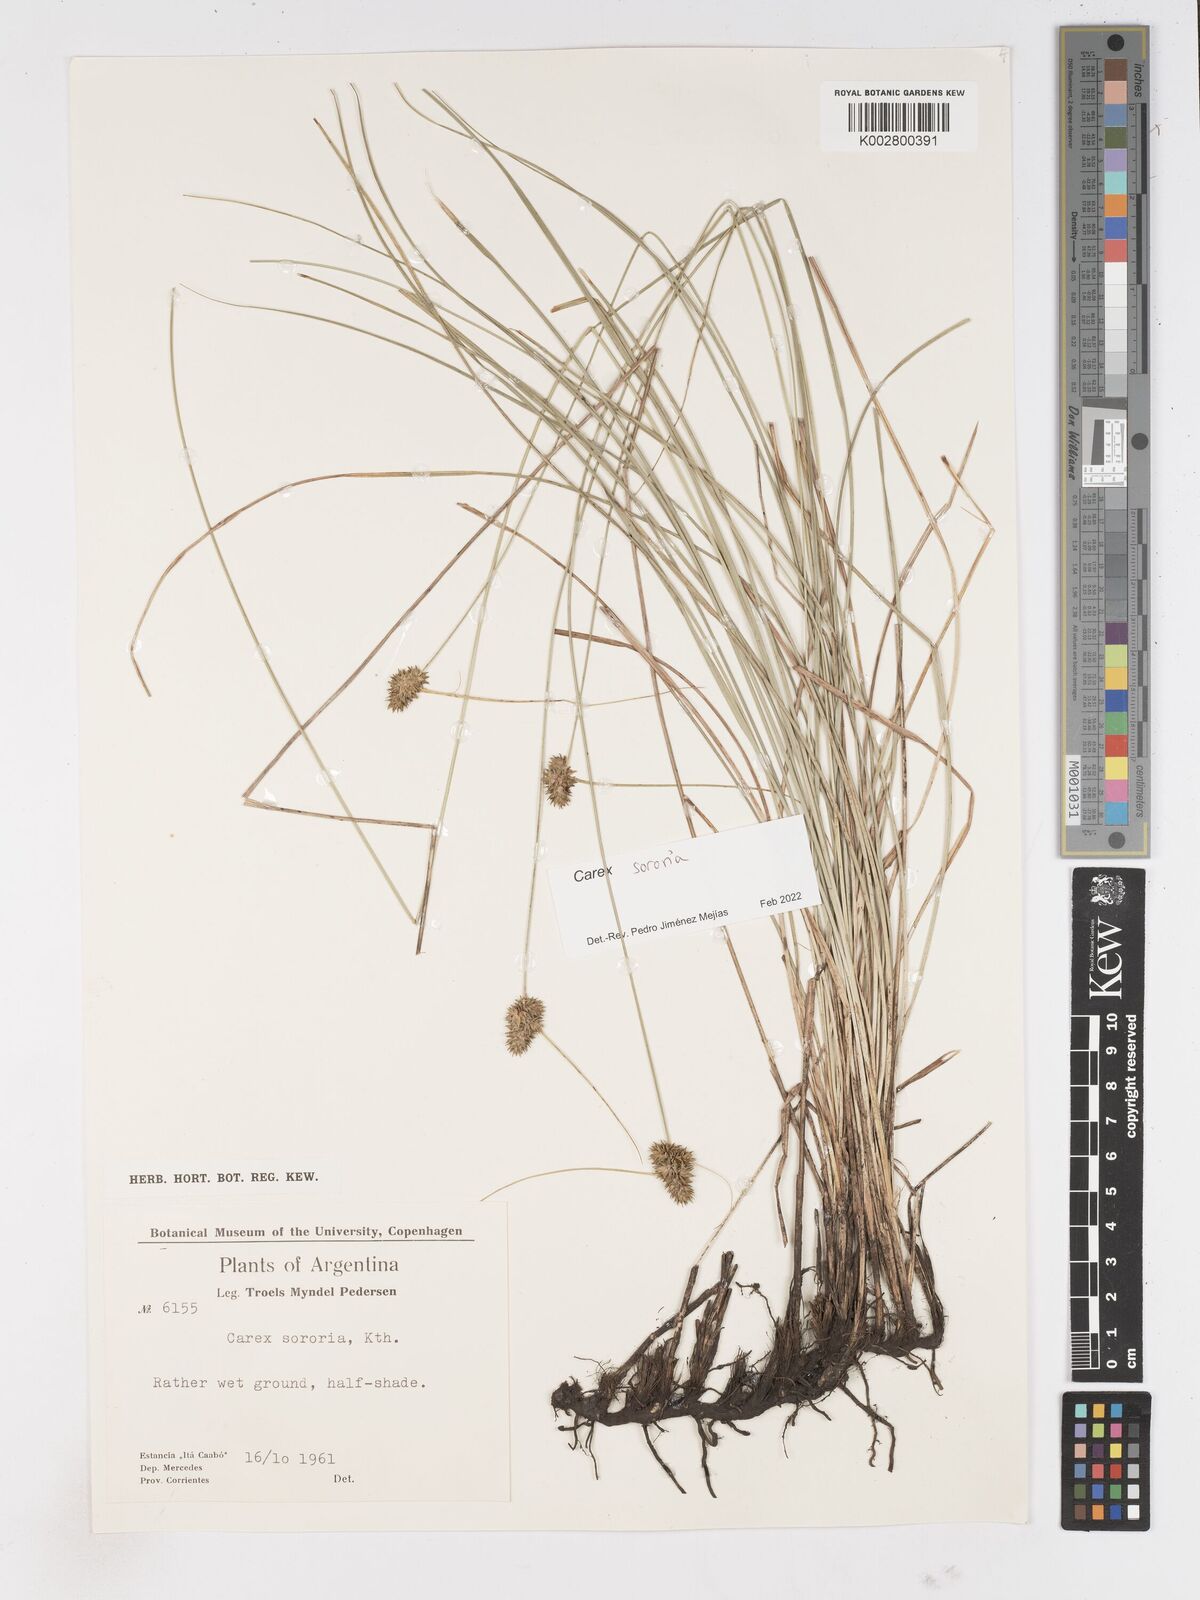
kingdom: Plantae
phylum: Tracheophyta
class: Liliopsida
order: Poales
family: Cyperaceae
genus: Carex
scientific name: Carex sororia
